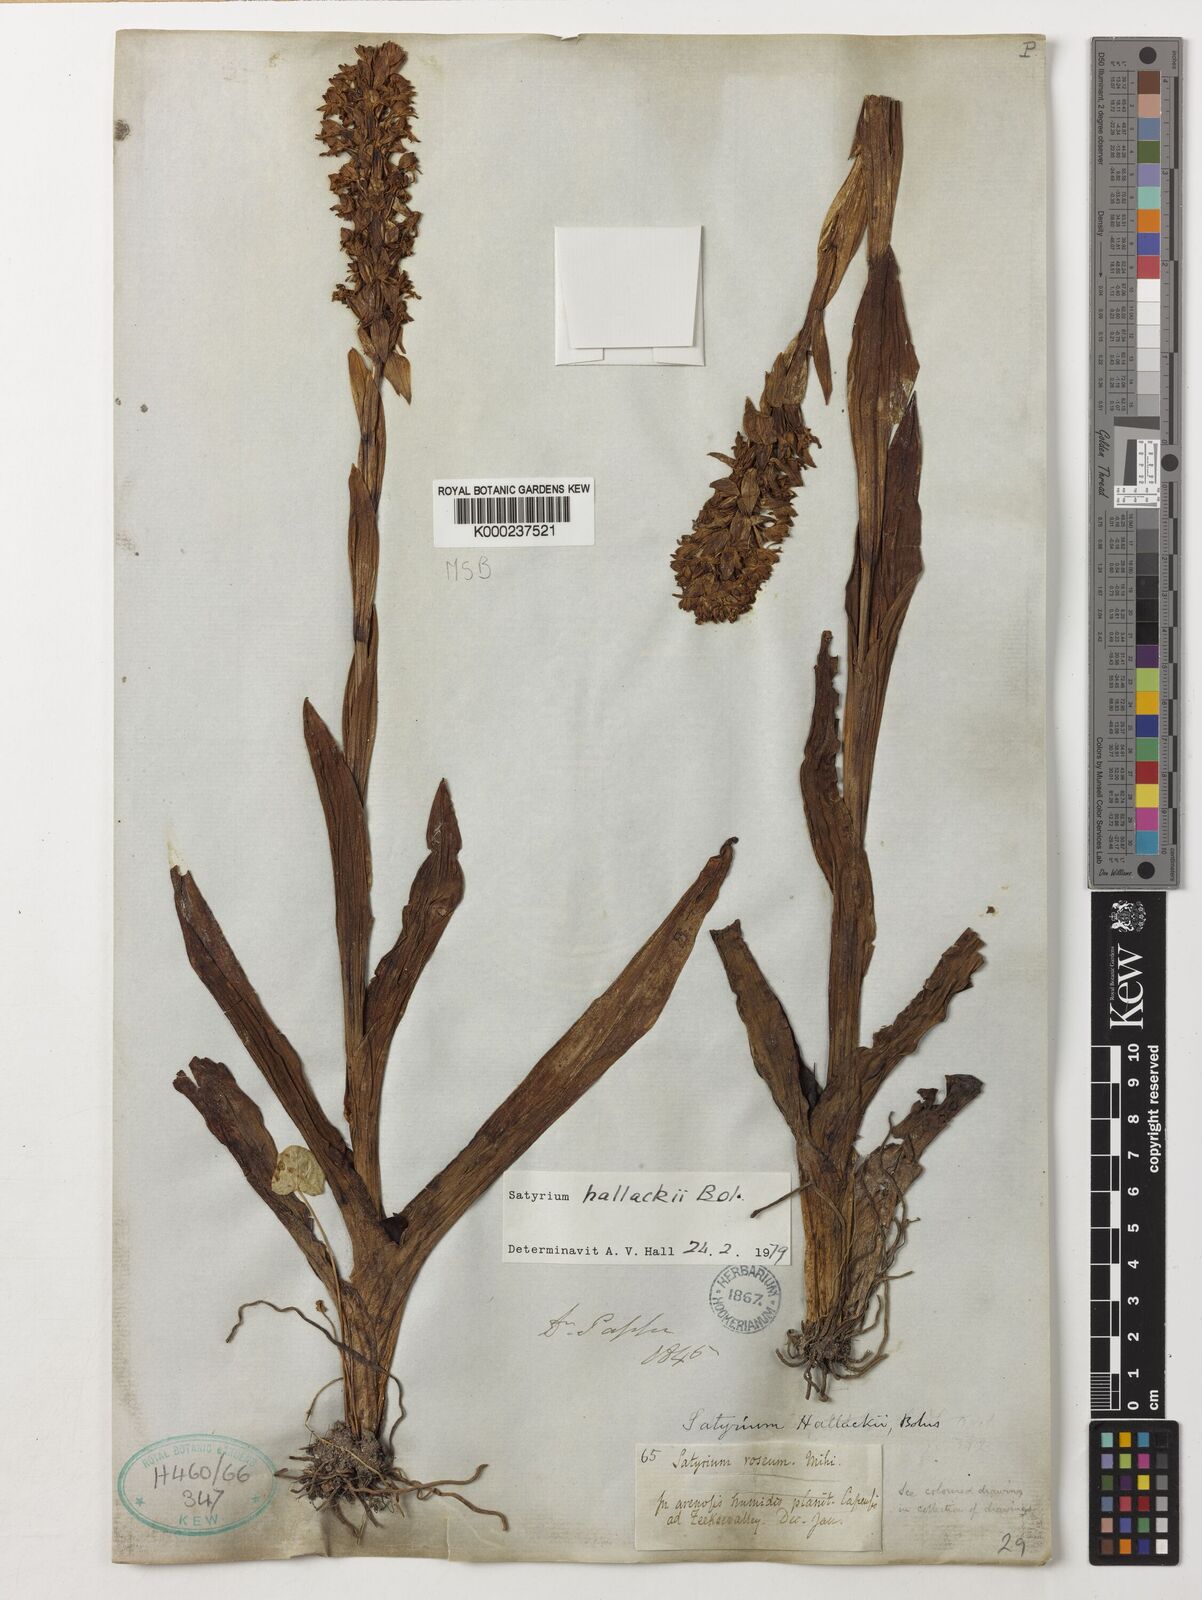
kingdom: Plantae
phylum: Tracheophyta
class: Liliopsida
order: Asparagales
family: Orchidaceae
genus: Satyrium
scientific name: Satyrium hallackii
